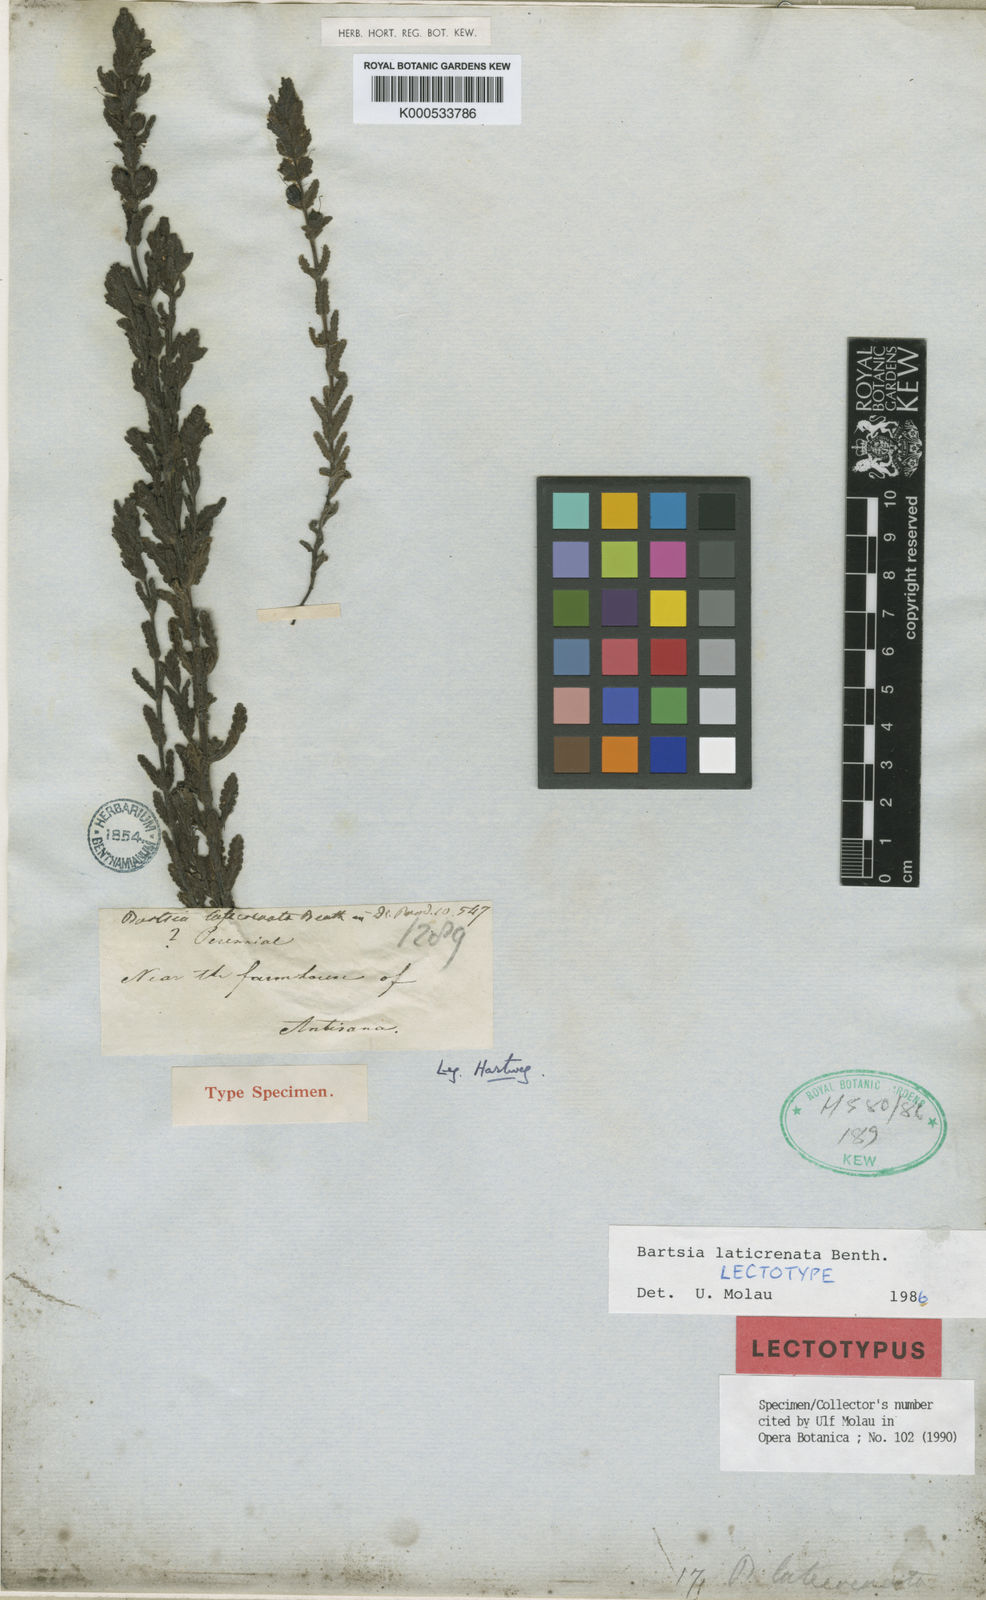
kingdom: Plantae
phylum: Tracheophyta
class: Magnoliopsida
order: Lamiales
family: Orobanchaceae
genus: Neobartsia
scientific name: Neobartsia laticrenata
